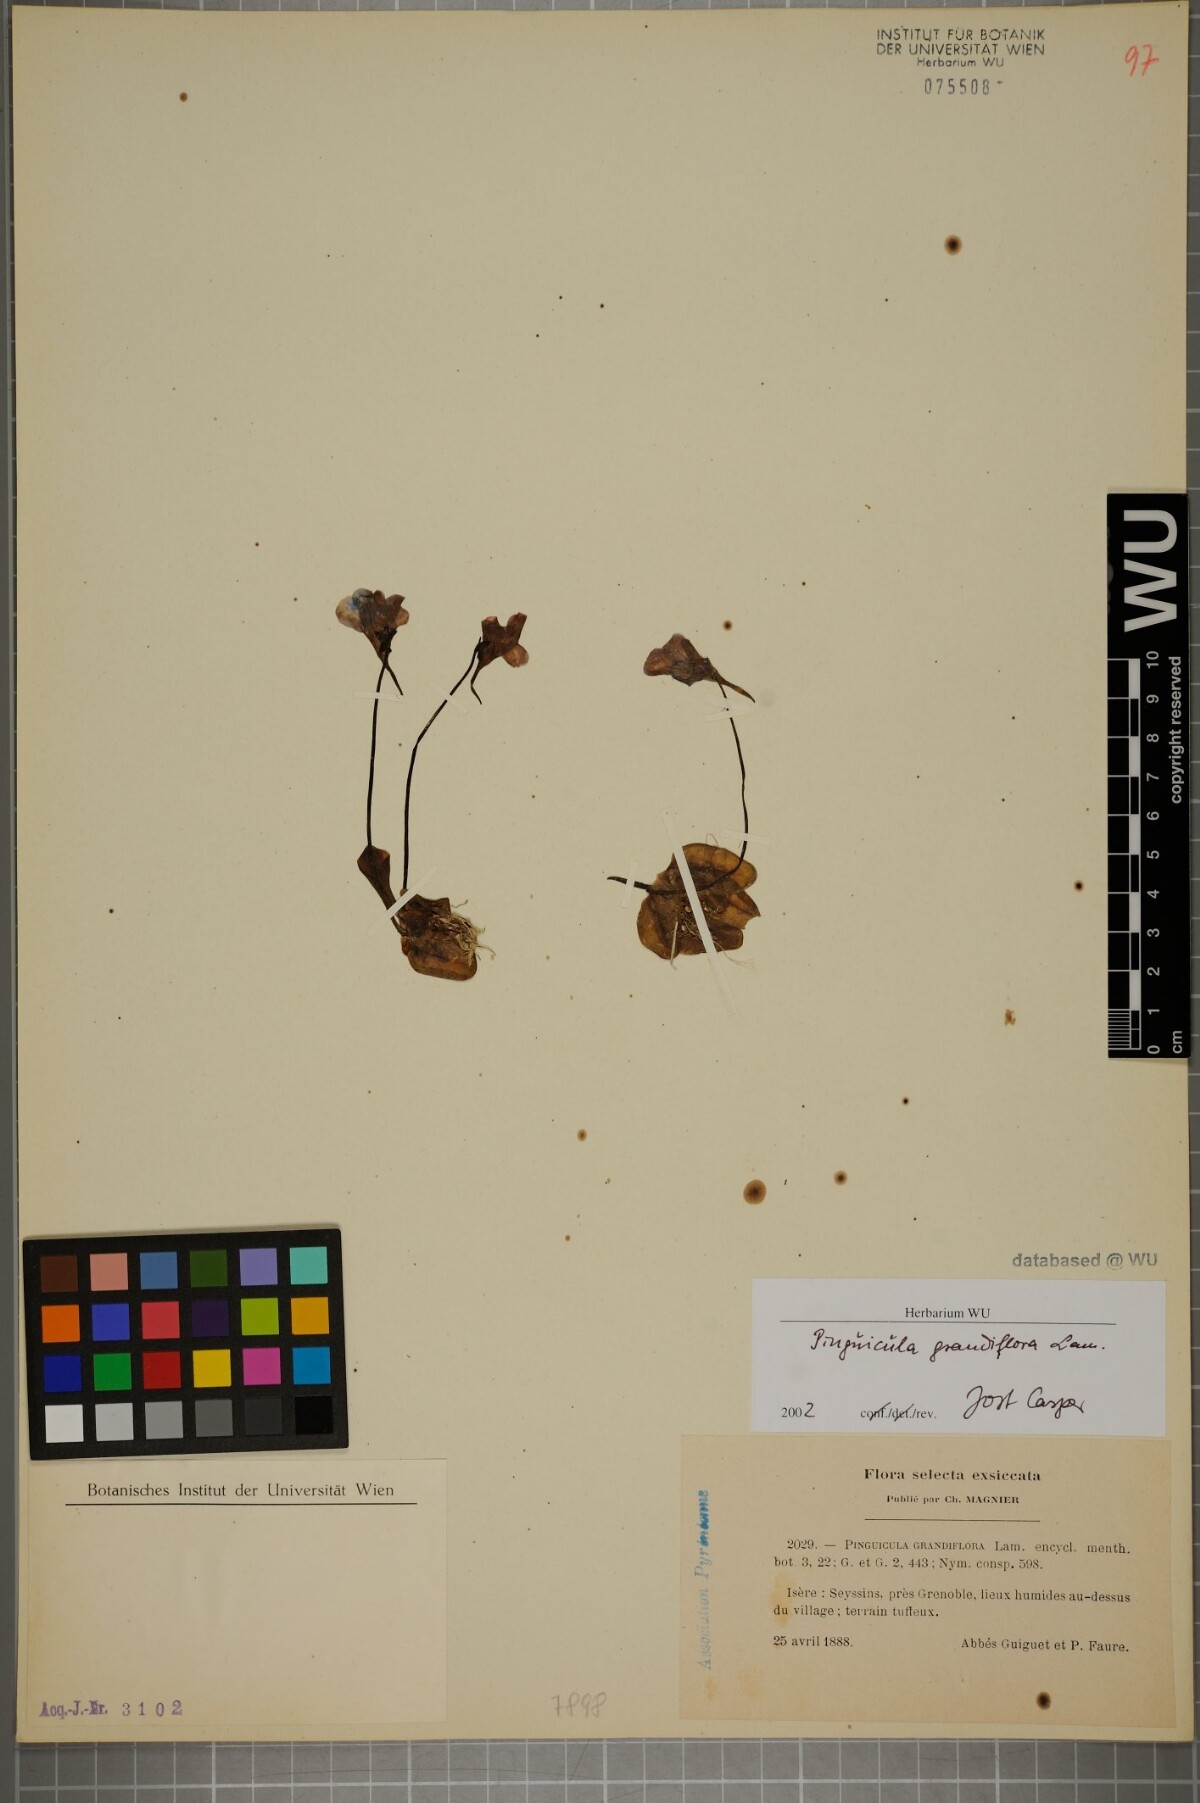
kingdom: Plantae
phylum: Tracheophyta
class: Magnoliopsida
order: Lamiales
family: Lentibulariaceae
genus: Pinguicula
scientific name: Pinguicula grandiflora
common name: Large-flowered butterwort
